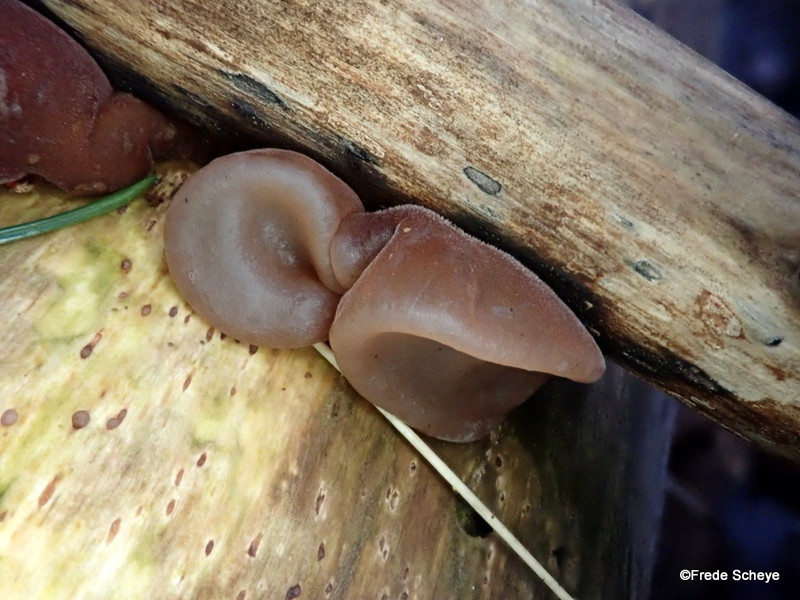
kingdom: Fungi
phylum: Basidiomycota
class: Agaricomycetes
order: Auriculariales
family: Auriculariaceae
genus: Auricularia
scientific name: Auricularia auricula-judae
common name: almindelig judasøre
